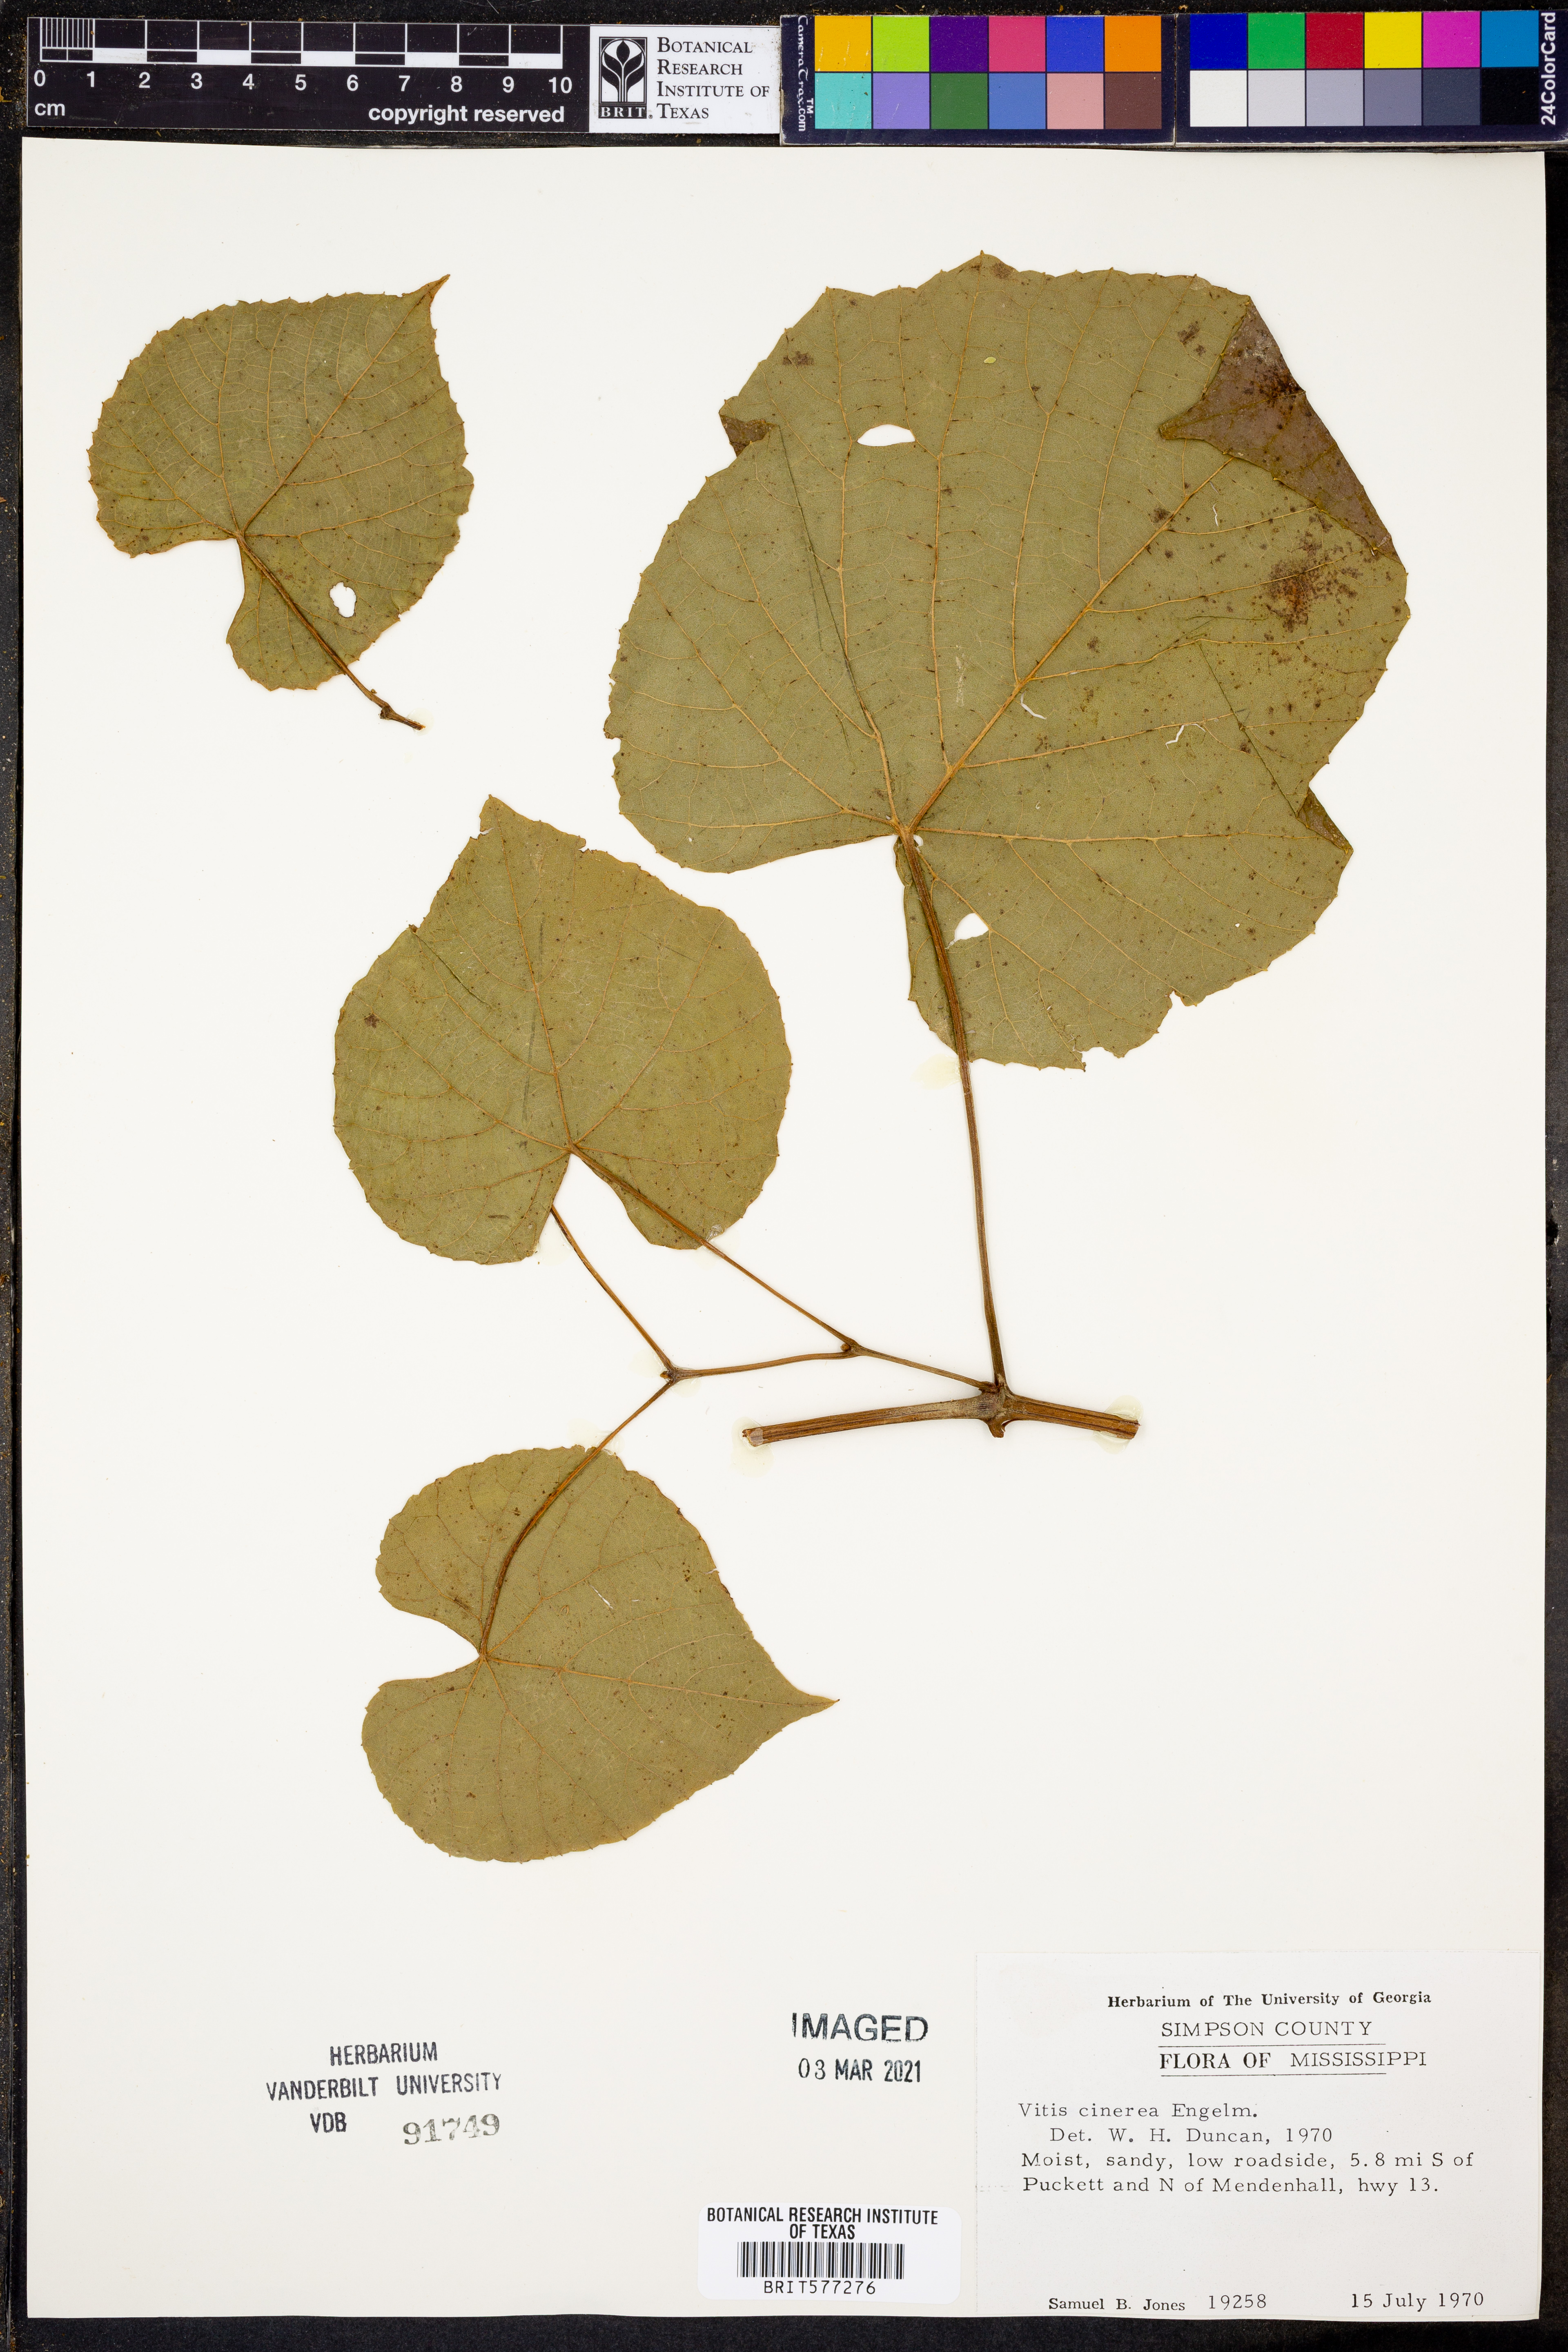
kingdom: Plantae
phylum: Tracheophyta
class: Magnoliopsida
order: Vitales
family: Vitaceae
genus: Vitis
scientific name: Vitis cinerea
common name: Ashy grape
